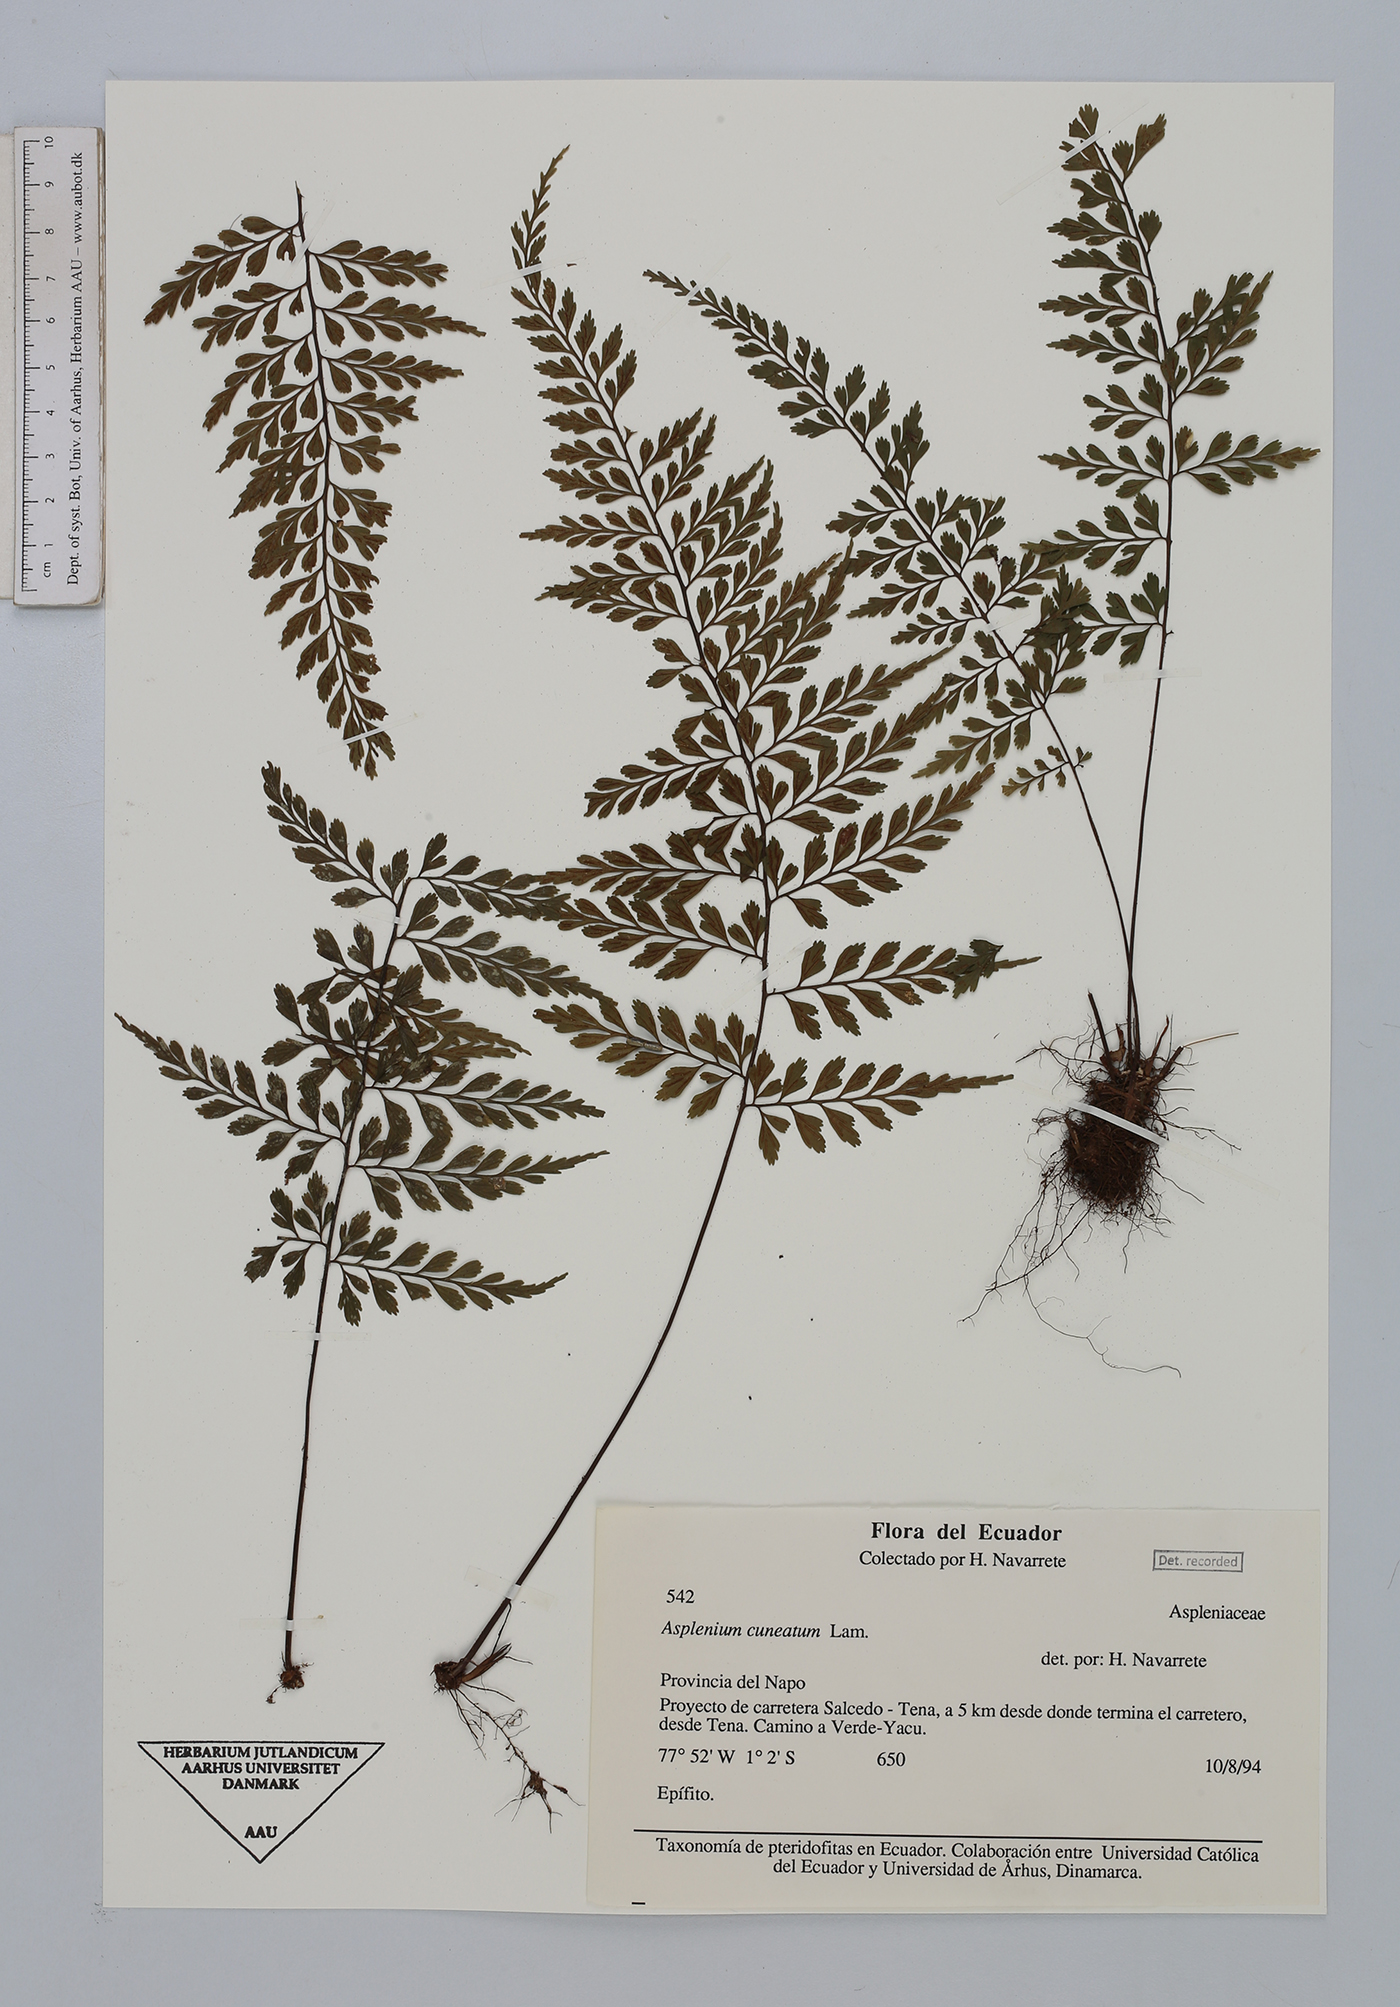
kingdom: Plantae
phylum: Tracheophyta
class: Polypodiopsida
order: Polypodiales
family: Aspleniaceae
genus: Asplenium
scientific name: Asplenium cuneatum
